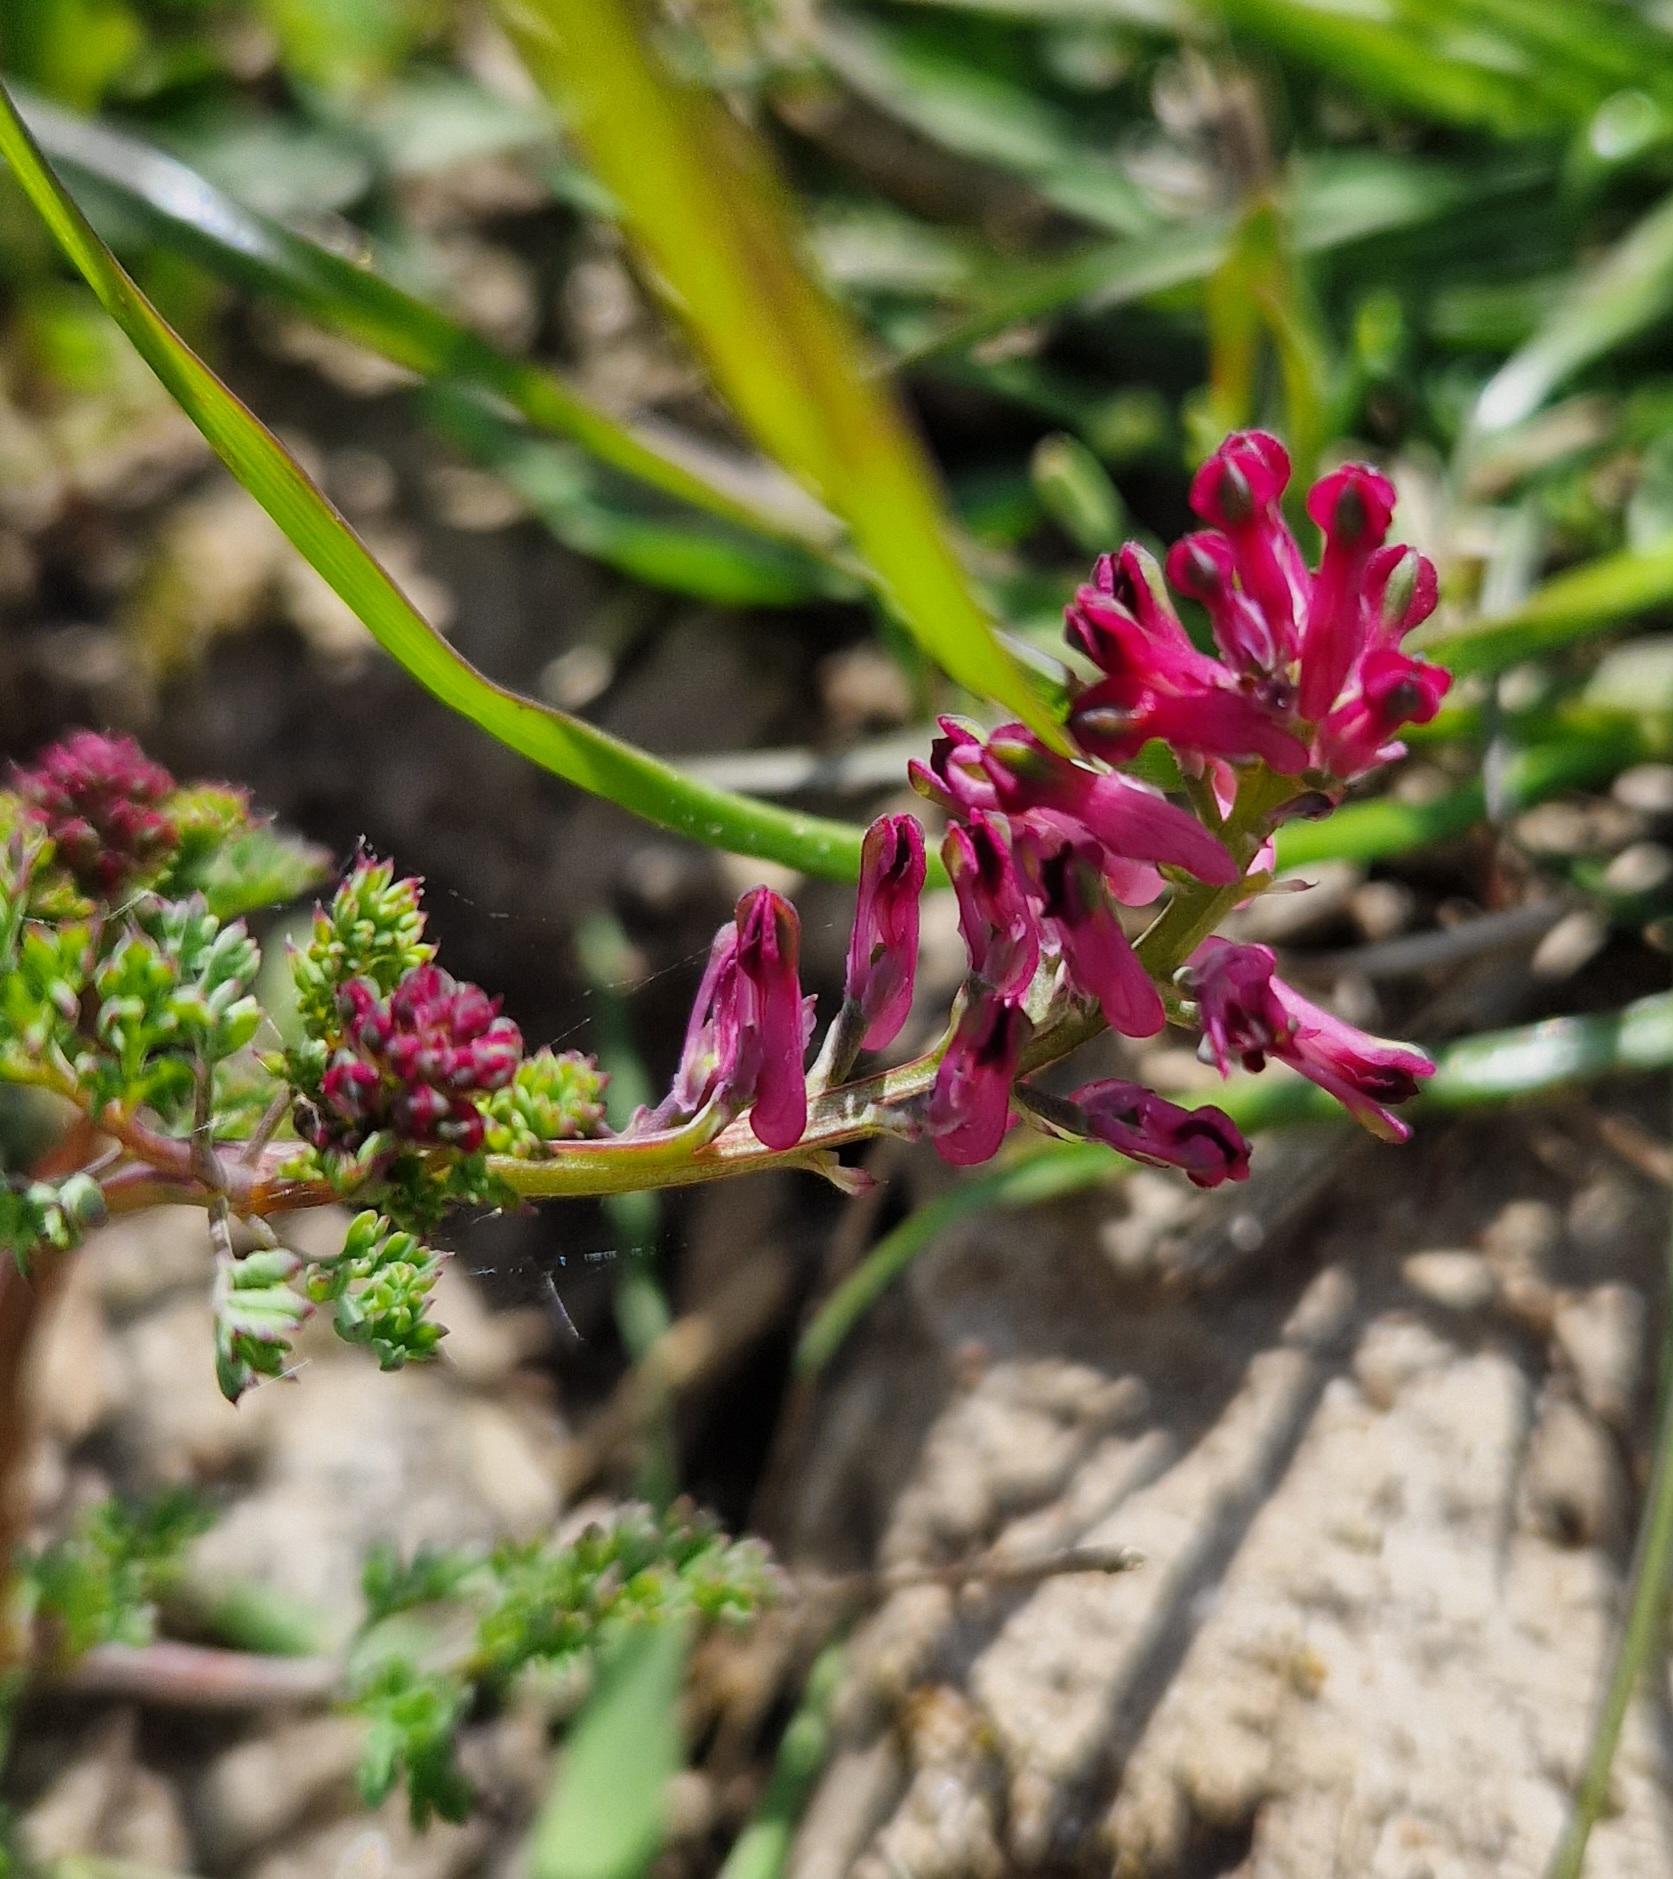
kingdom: Plantae
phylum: Tracheophyta
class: Magnoliopsida
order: Ranunculales
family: Papaveraceae
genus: Fumaria
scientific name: Fumaria officinalis
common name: Læge-jordrøg
